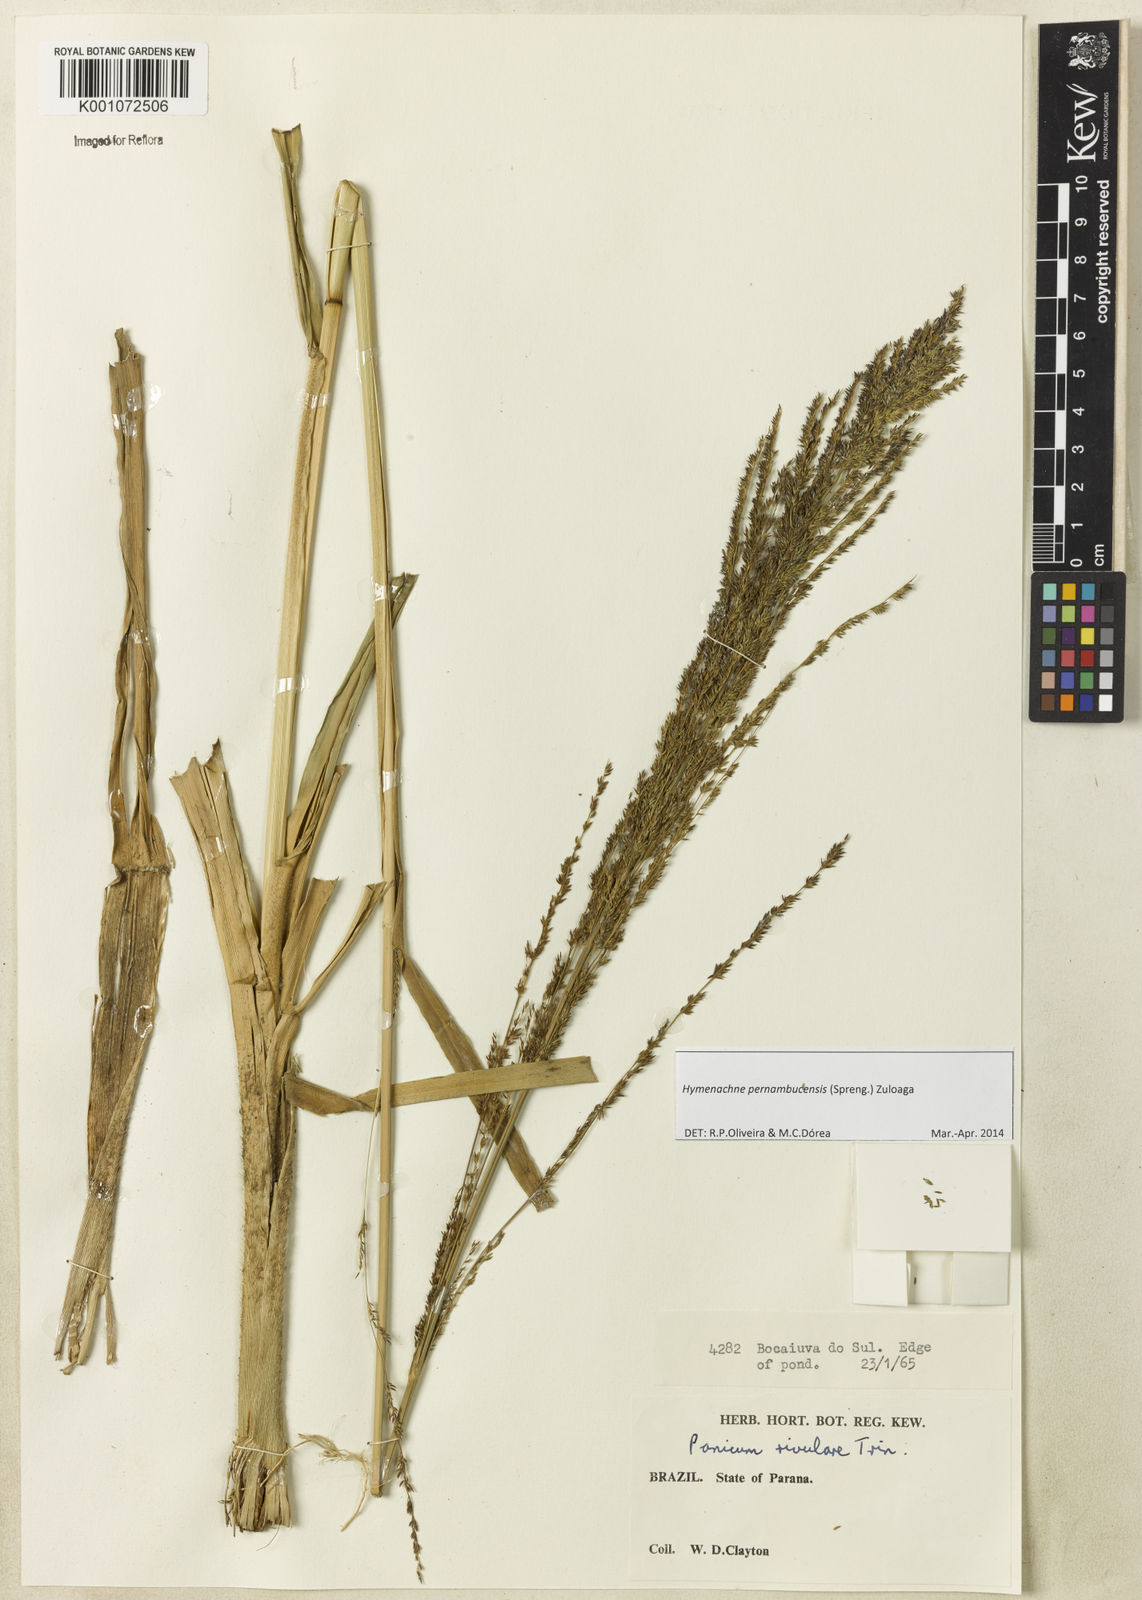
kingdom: Plantae
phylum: Tracheophyta
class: Liliopsida
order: Poales
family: Poaceae
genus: Hymenachne
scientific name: Hymenachne pernambucensis
